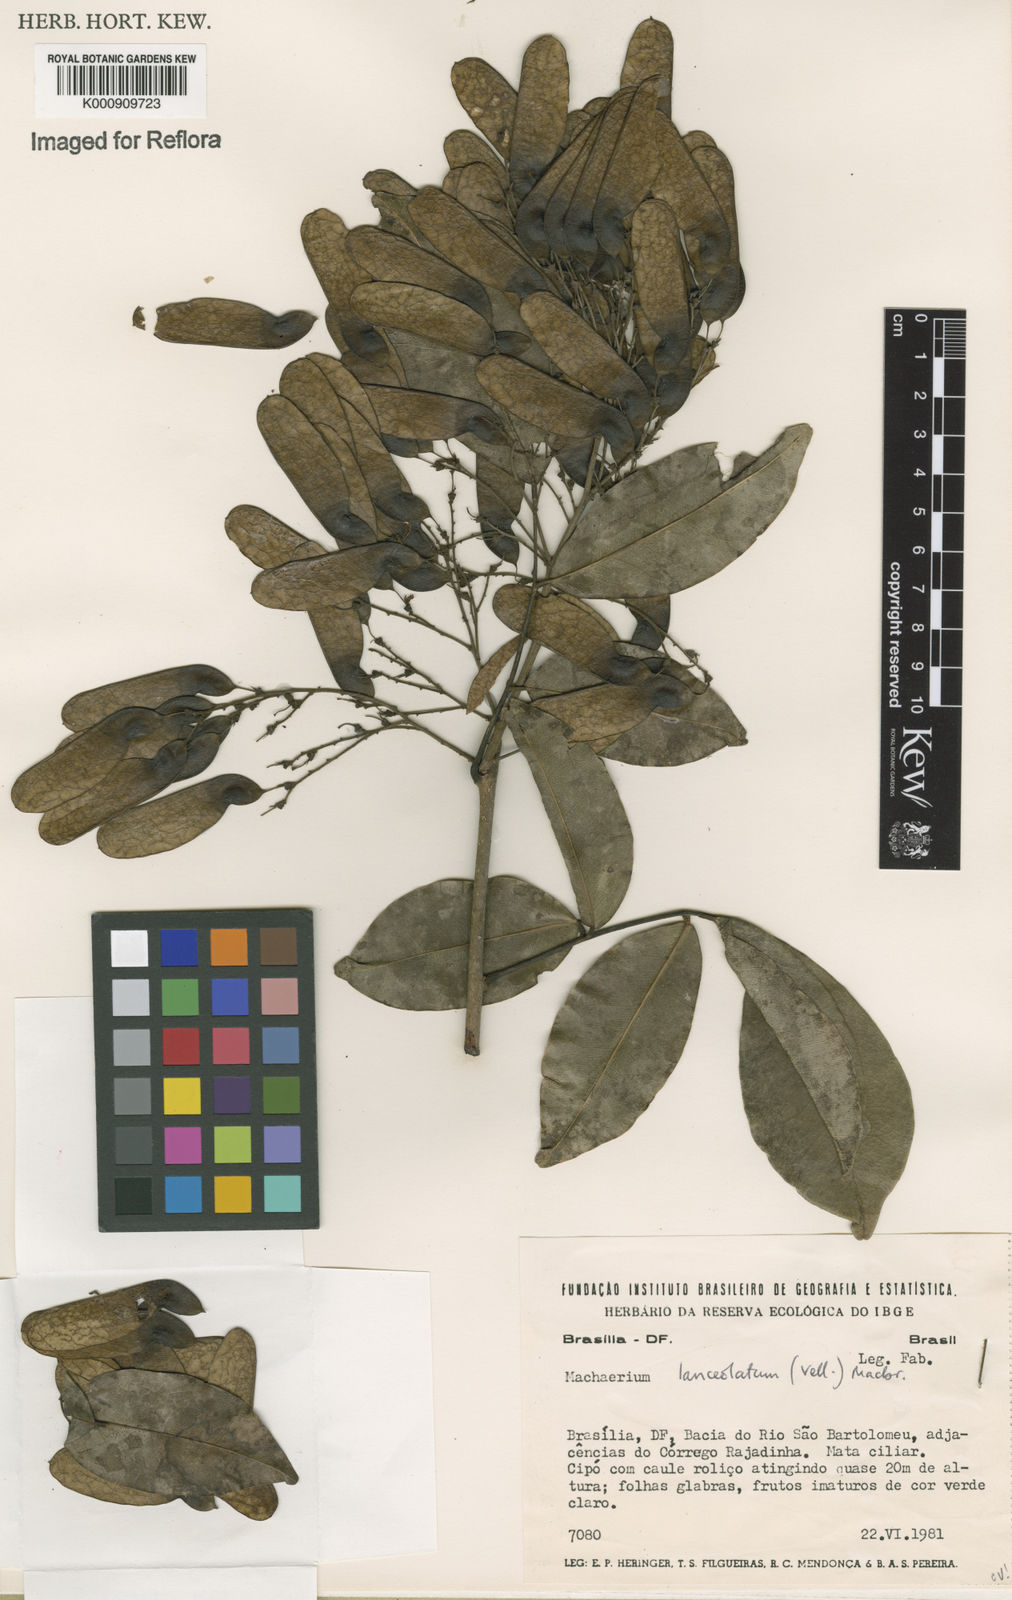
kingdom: Plantae
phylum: Tracheophyta
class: Magnoliopsida
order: Fabales
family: Fabaceae
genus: Machaerium
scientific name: Machaerium lanceolatum
